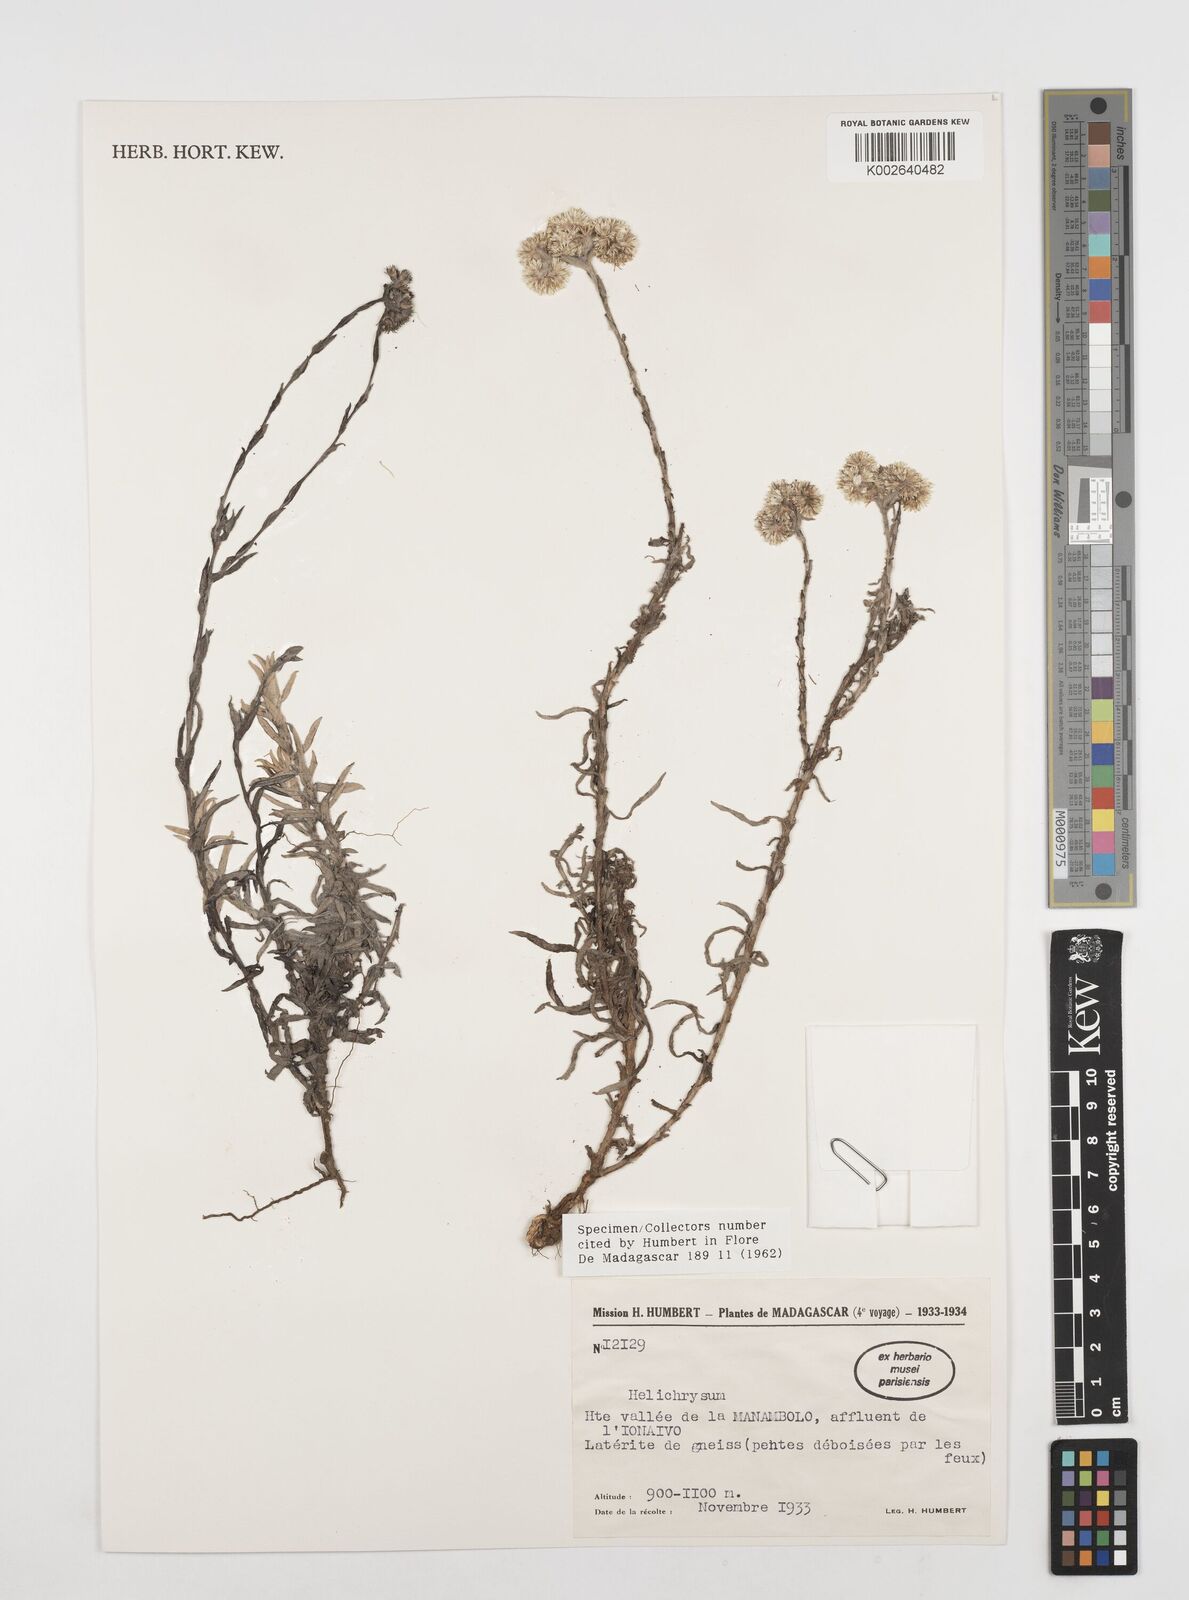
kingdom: Plantae
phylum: Tracheophyta
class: Magnoliopsida
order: Asterales
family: Asteraceae
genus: Helichrysum
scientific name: Helichrysum leucosphaerum
